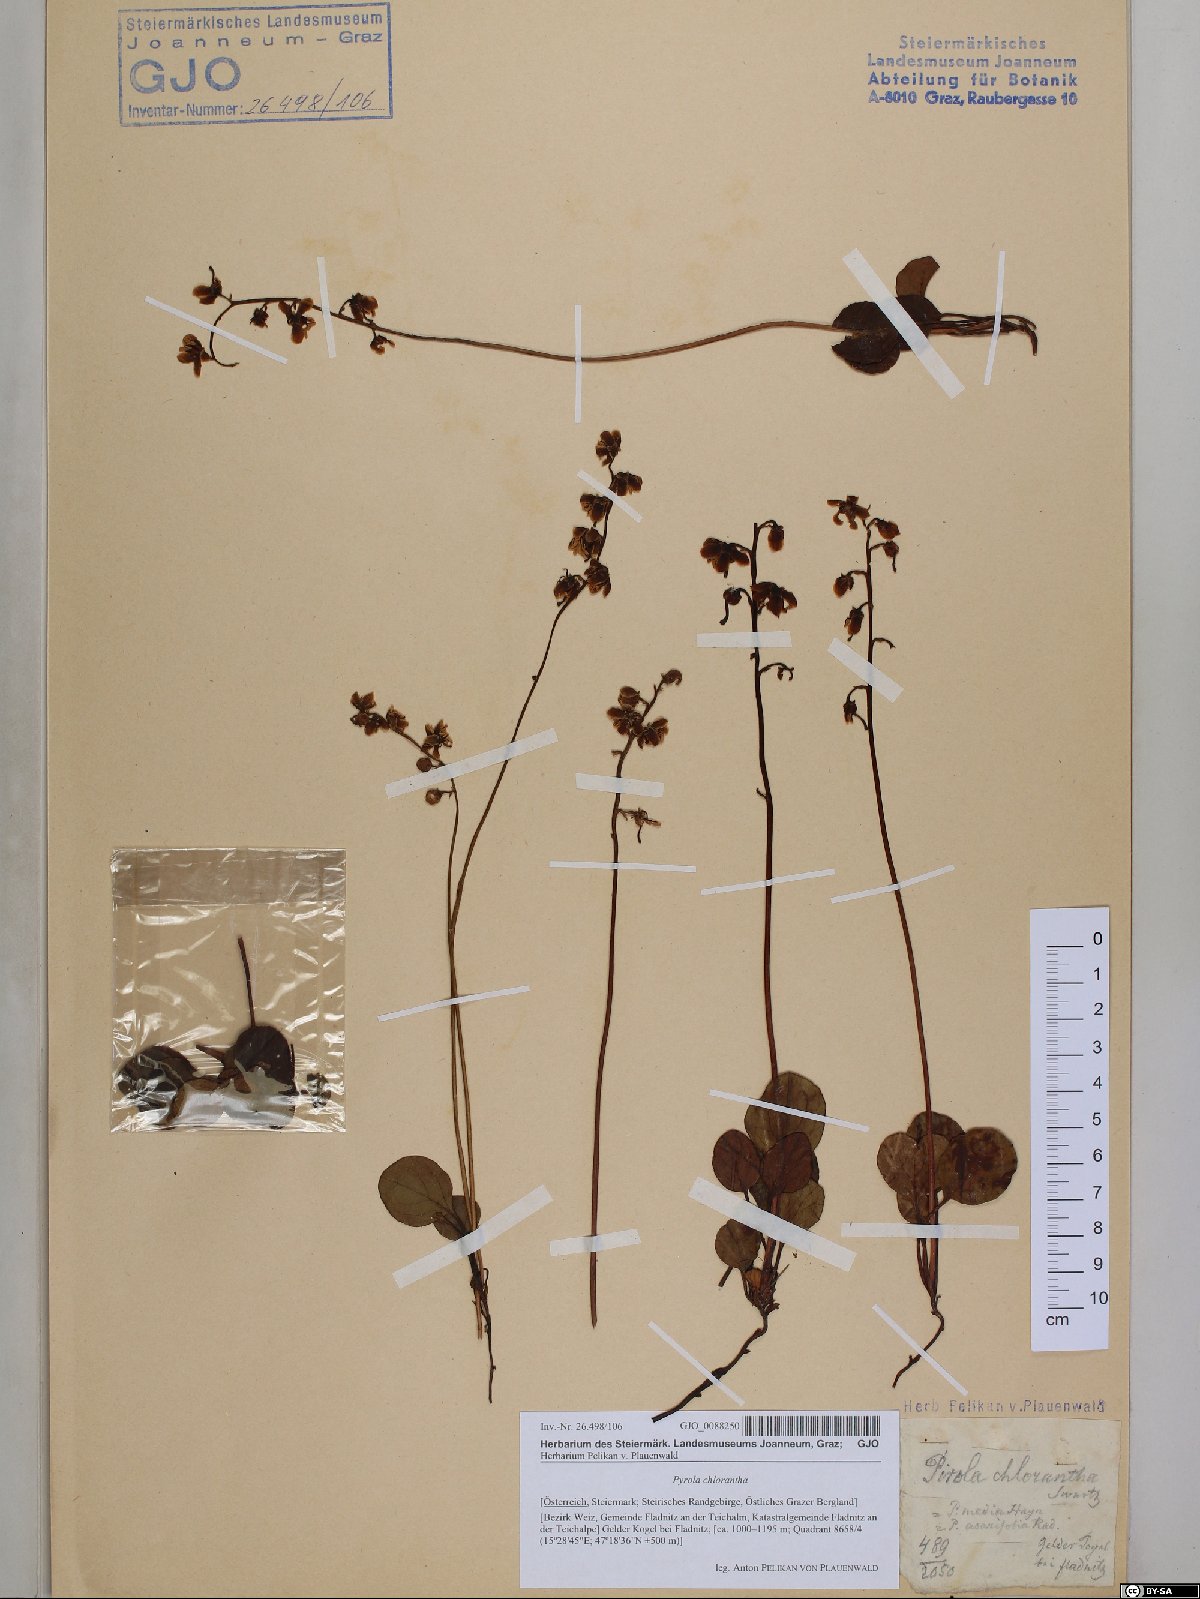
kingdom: Plantae
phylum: Tracheophyta
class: Magnoliopsida
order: Ericales
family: Ericaceae
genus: Pyrola
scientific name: Pyrola chlorantha
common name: Green wintergreen
